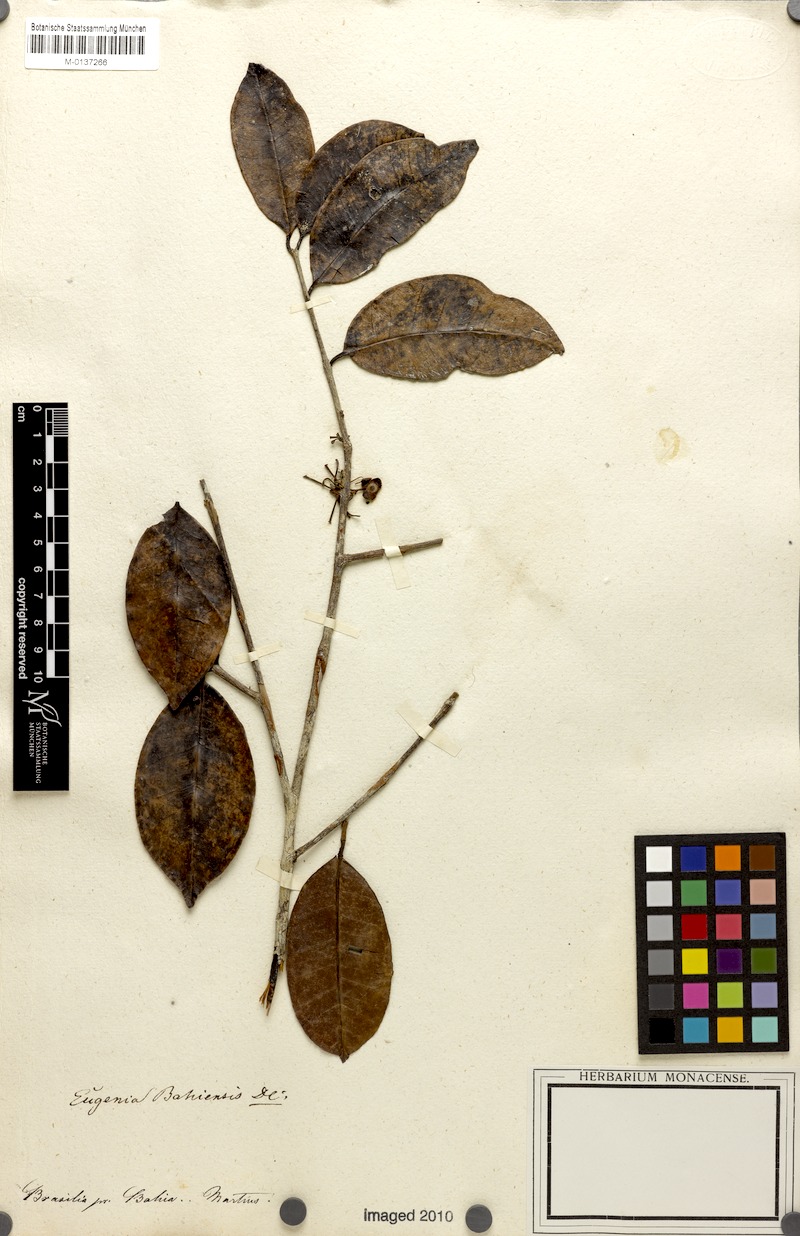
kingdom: Plantae
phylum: Tracheophyta
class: Magnoliopsida
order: Myrtales
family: Myrtaceae
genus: Eugenia
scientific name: Eugenia bahiensis
